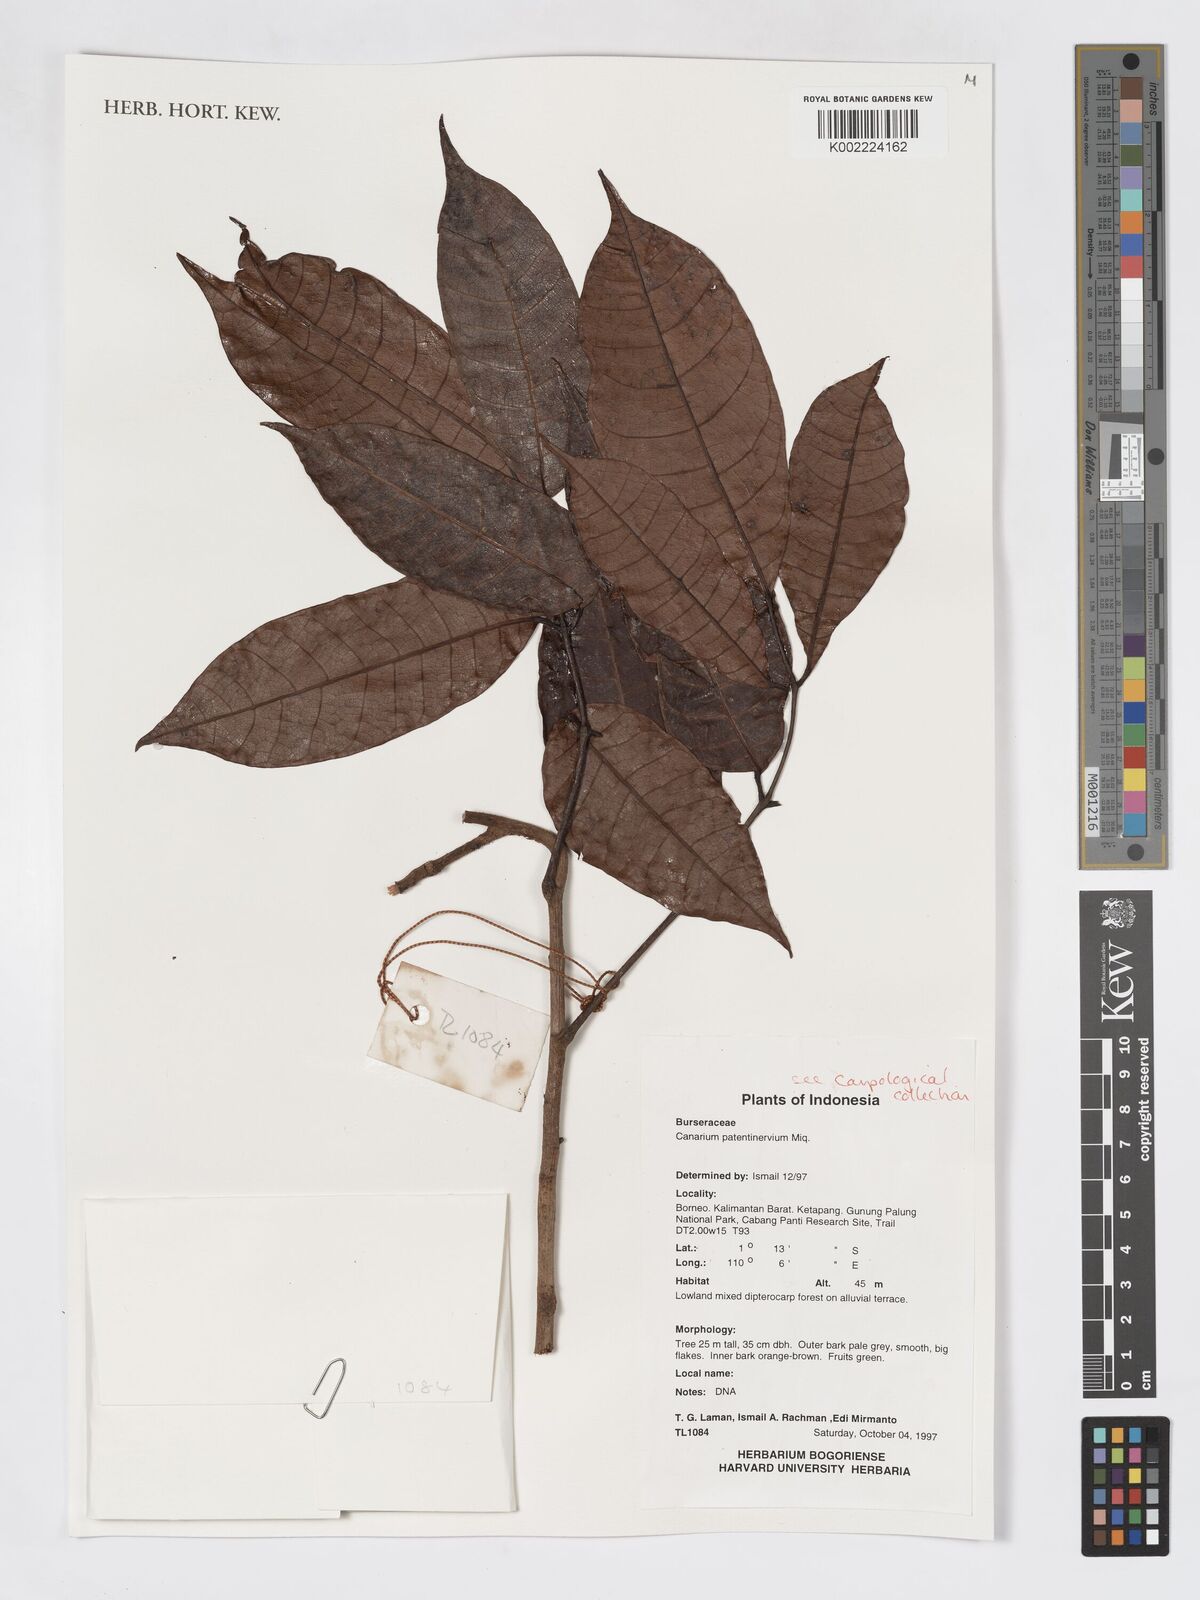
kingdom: Plantae
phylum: Tracheophyta
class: Magnoliopsida
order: Sapindales
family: Burseraceae
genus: Canarium
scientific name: Canarium patentinervium
